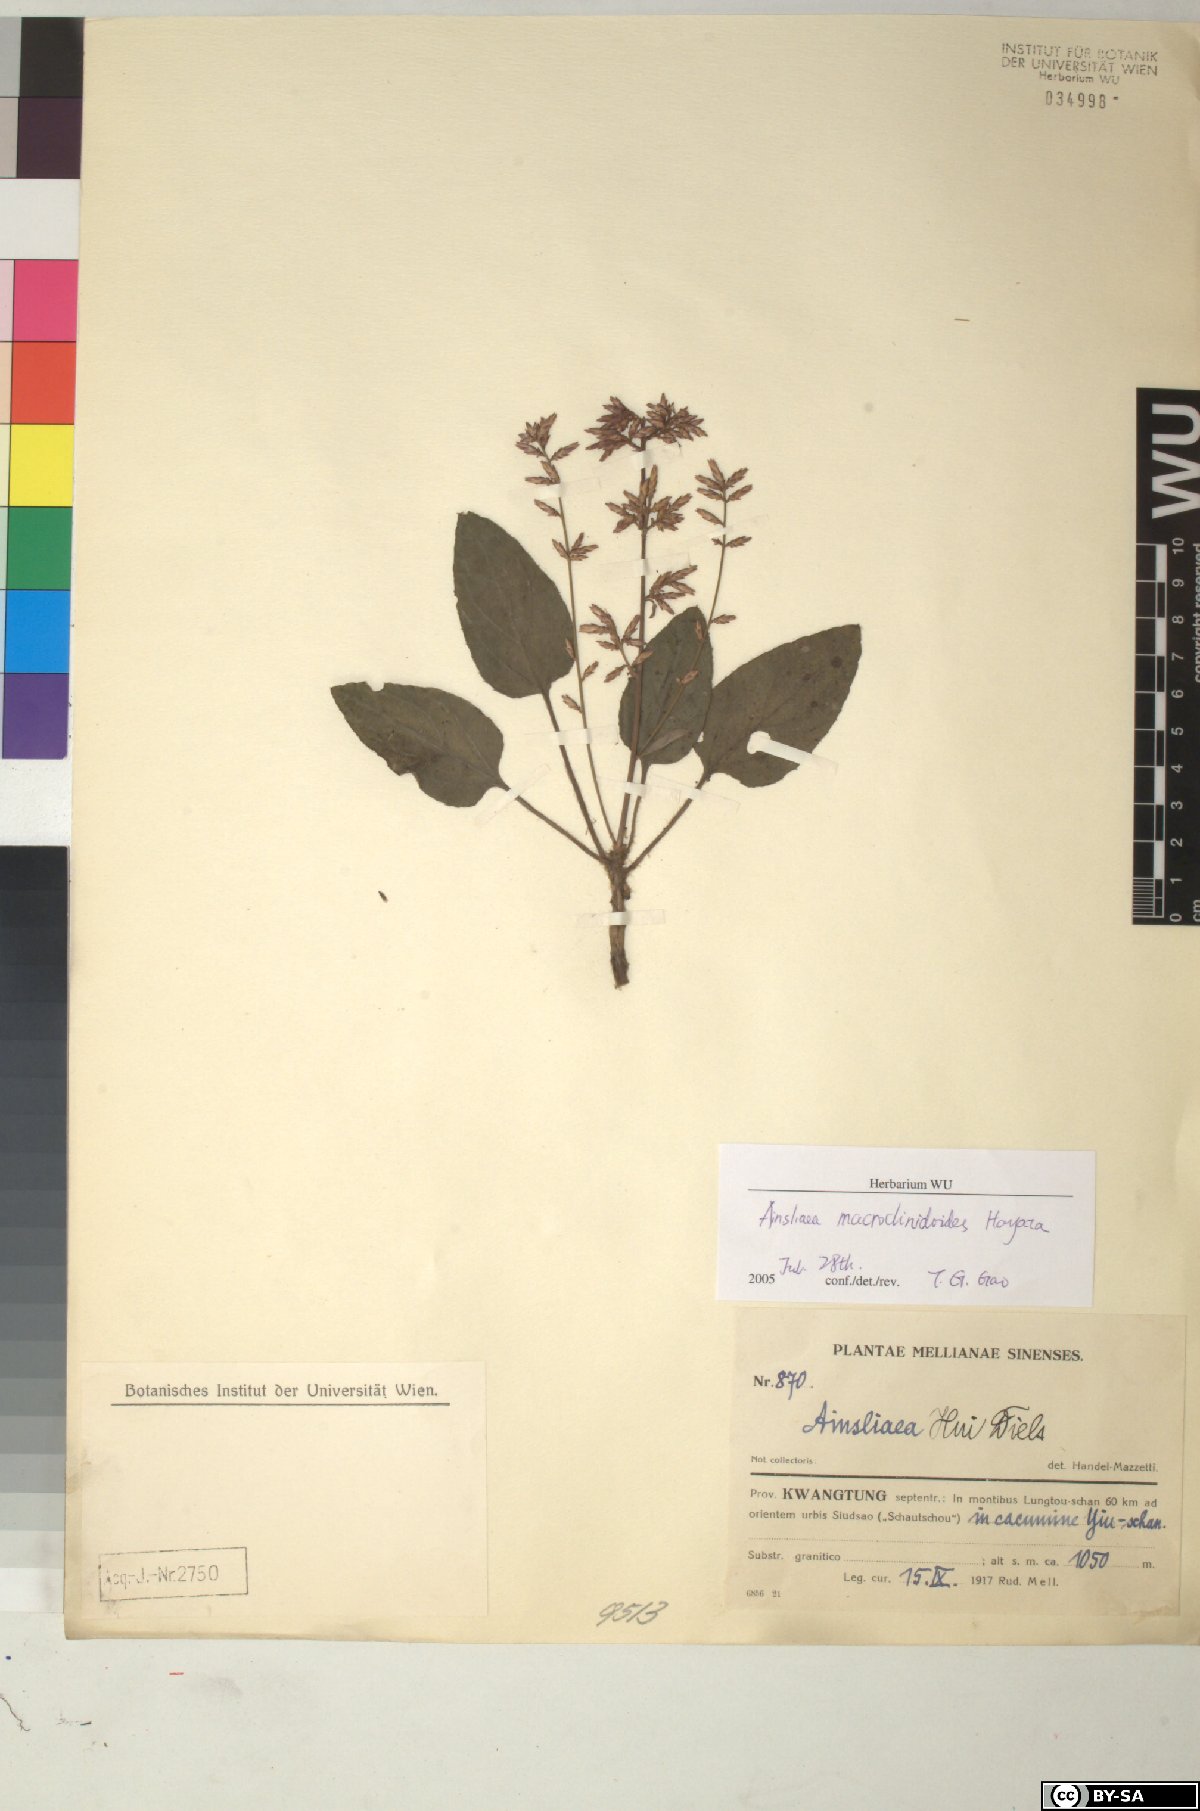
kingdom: Plantae
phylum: Tracheophyta
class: Magnoliopsida
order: Asterales
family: Asteraceae
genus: Ainsliaea
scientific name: Ainsliaea macroclinidioides
